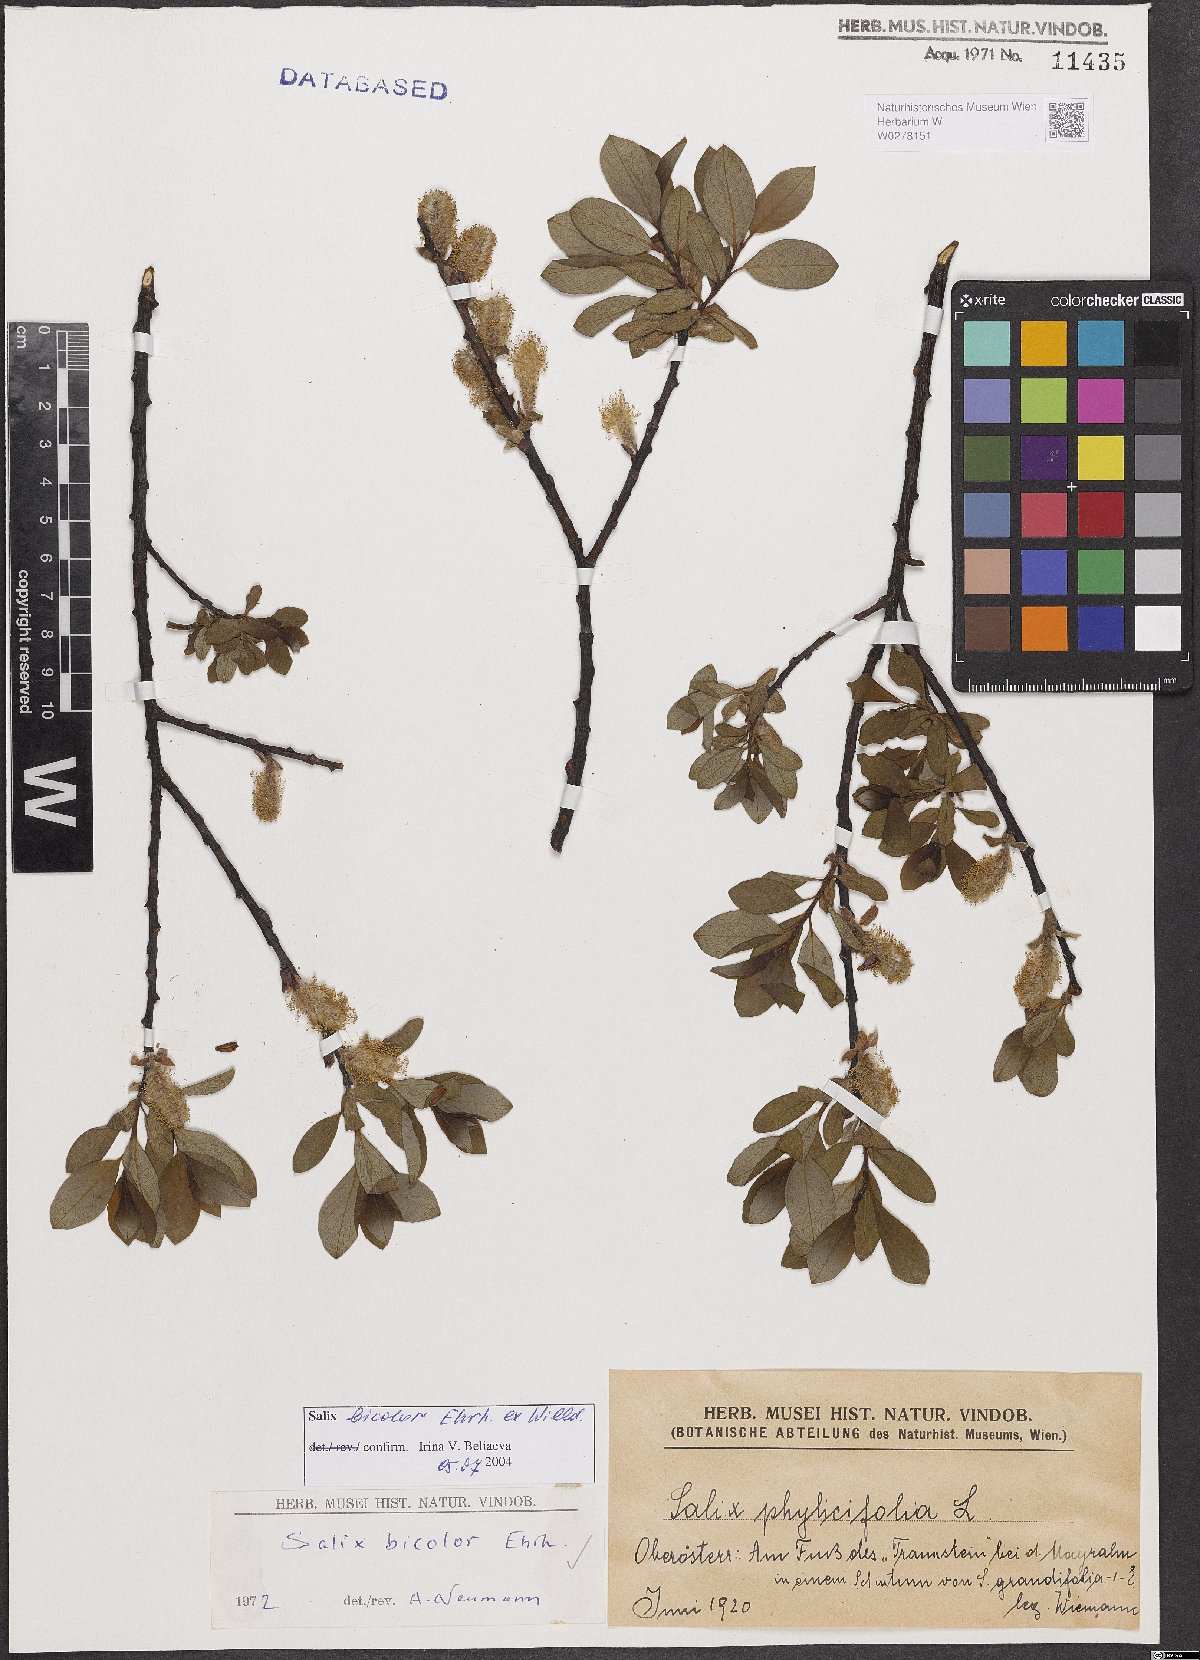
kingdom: Plantae
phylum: Tracheophyta
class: Magnoliopsida
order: Malpighiales
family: Salicaceae
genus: Salix
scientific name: Salix bicolor
